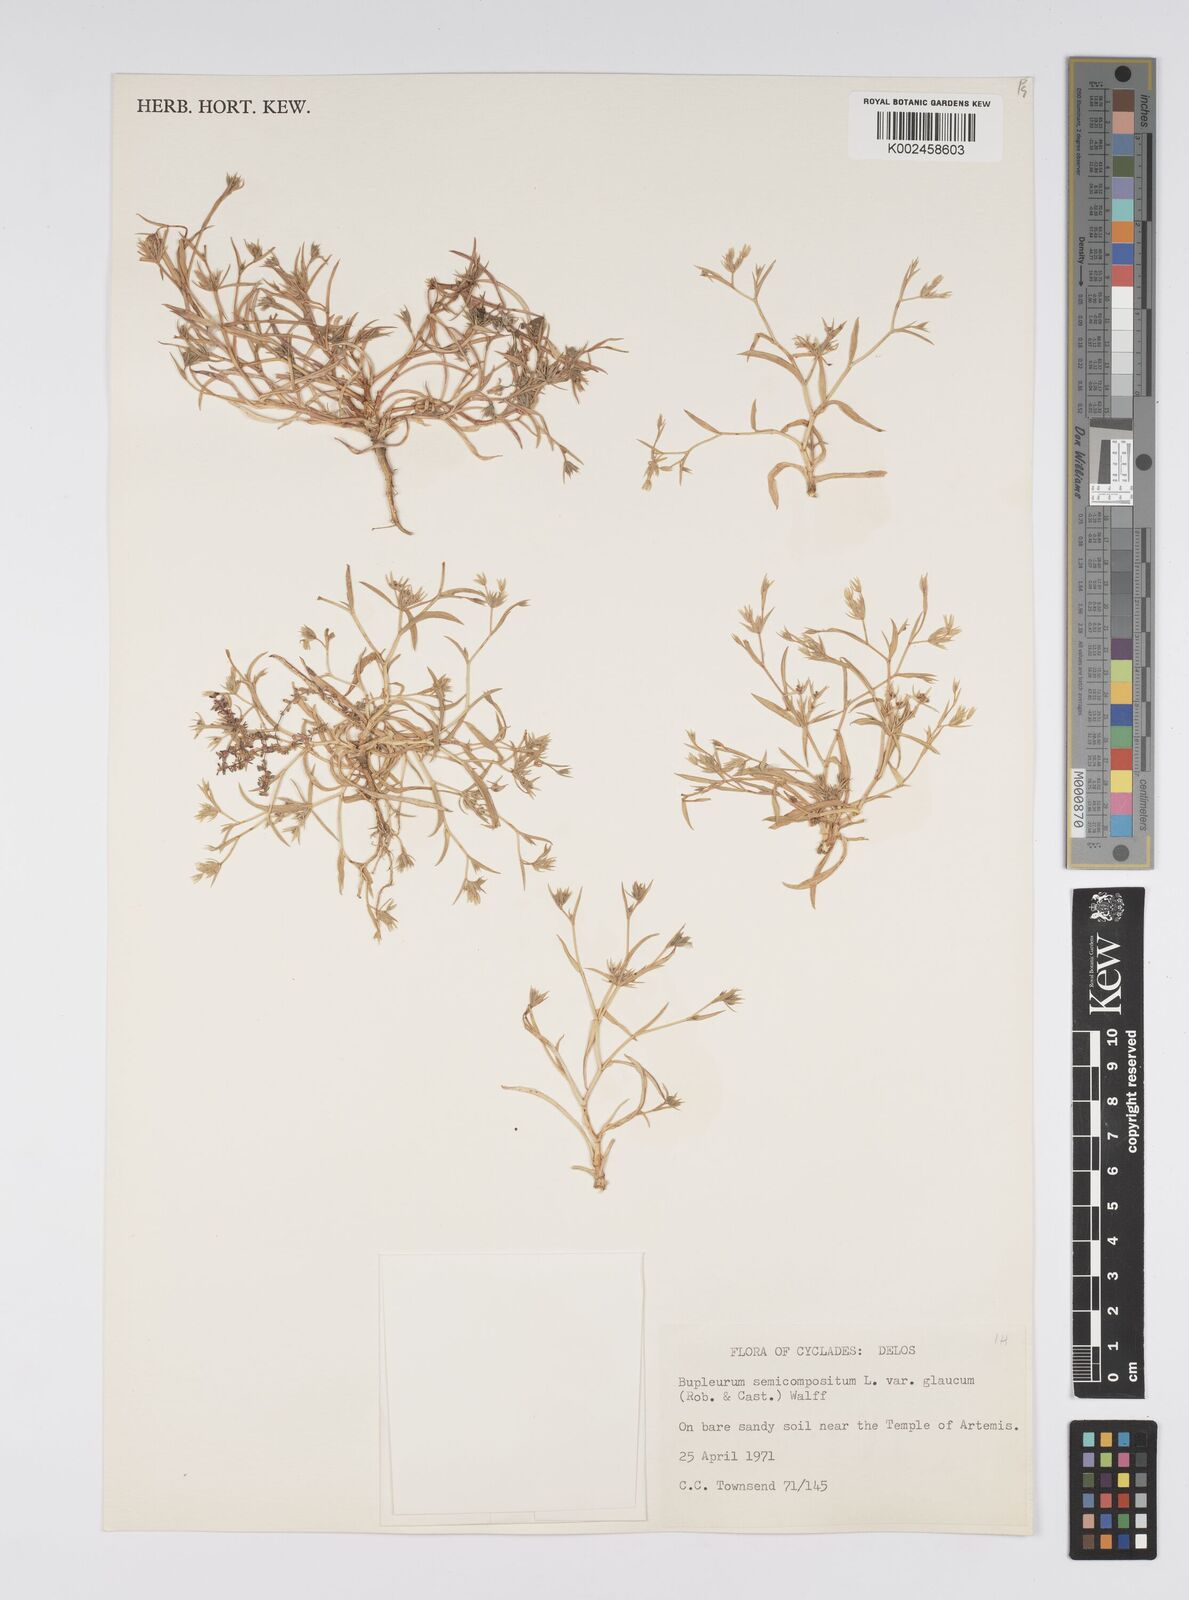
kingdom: Plantae
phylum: Tracheophyta
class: Magnoliopsida
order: Apiales
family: Apiaceae
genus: Bupleurum
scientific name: Bupleurum semicompositum
